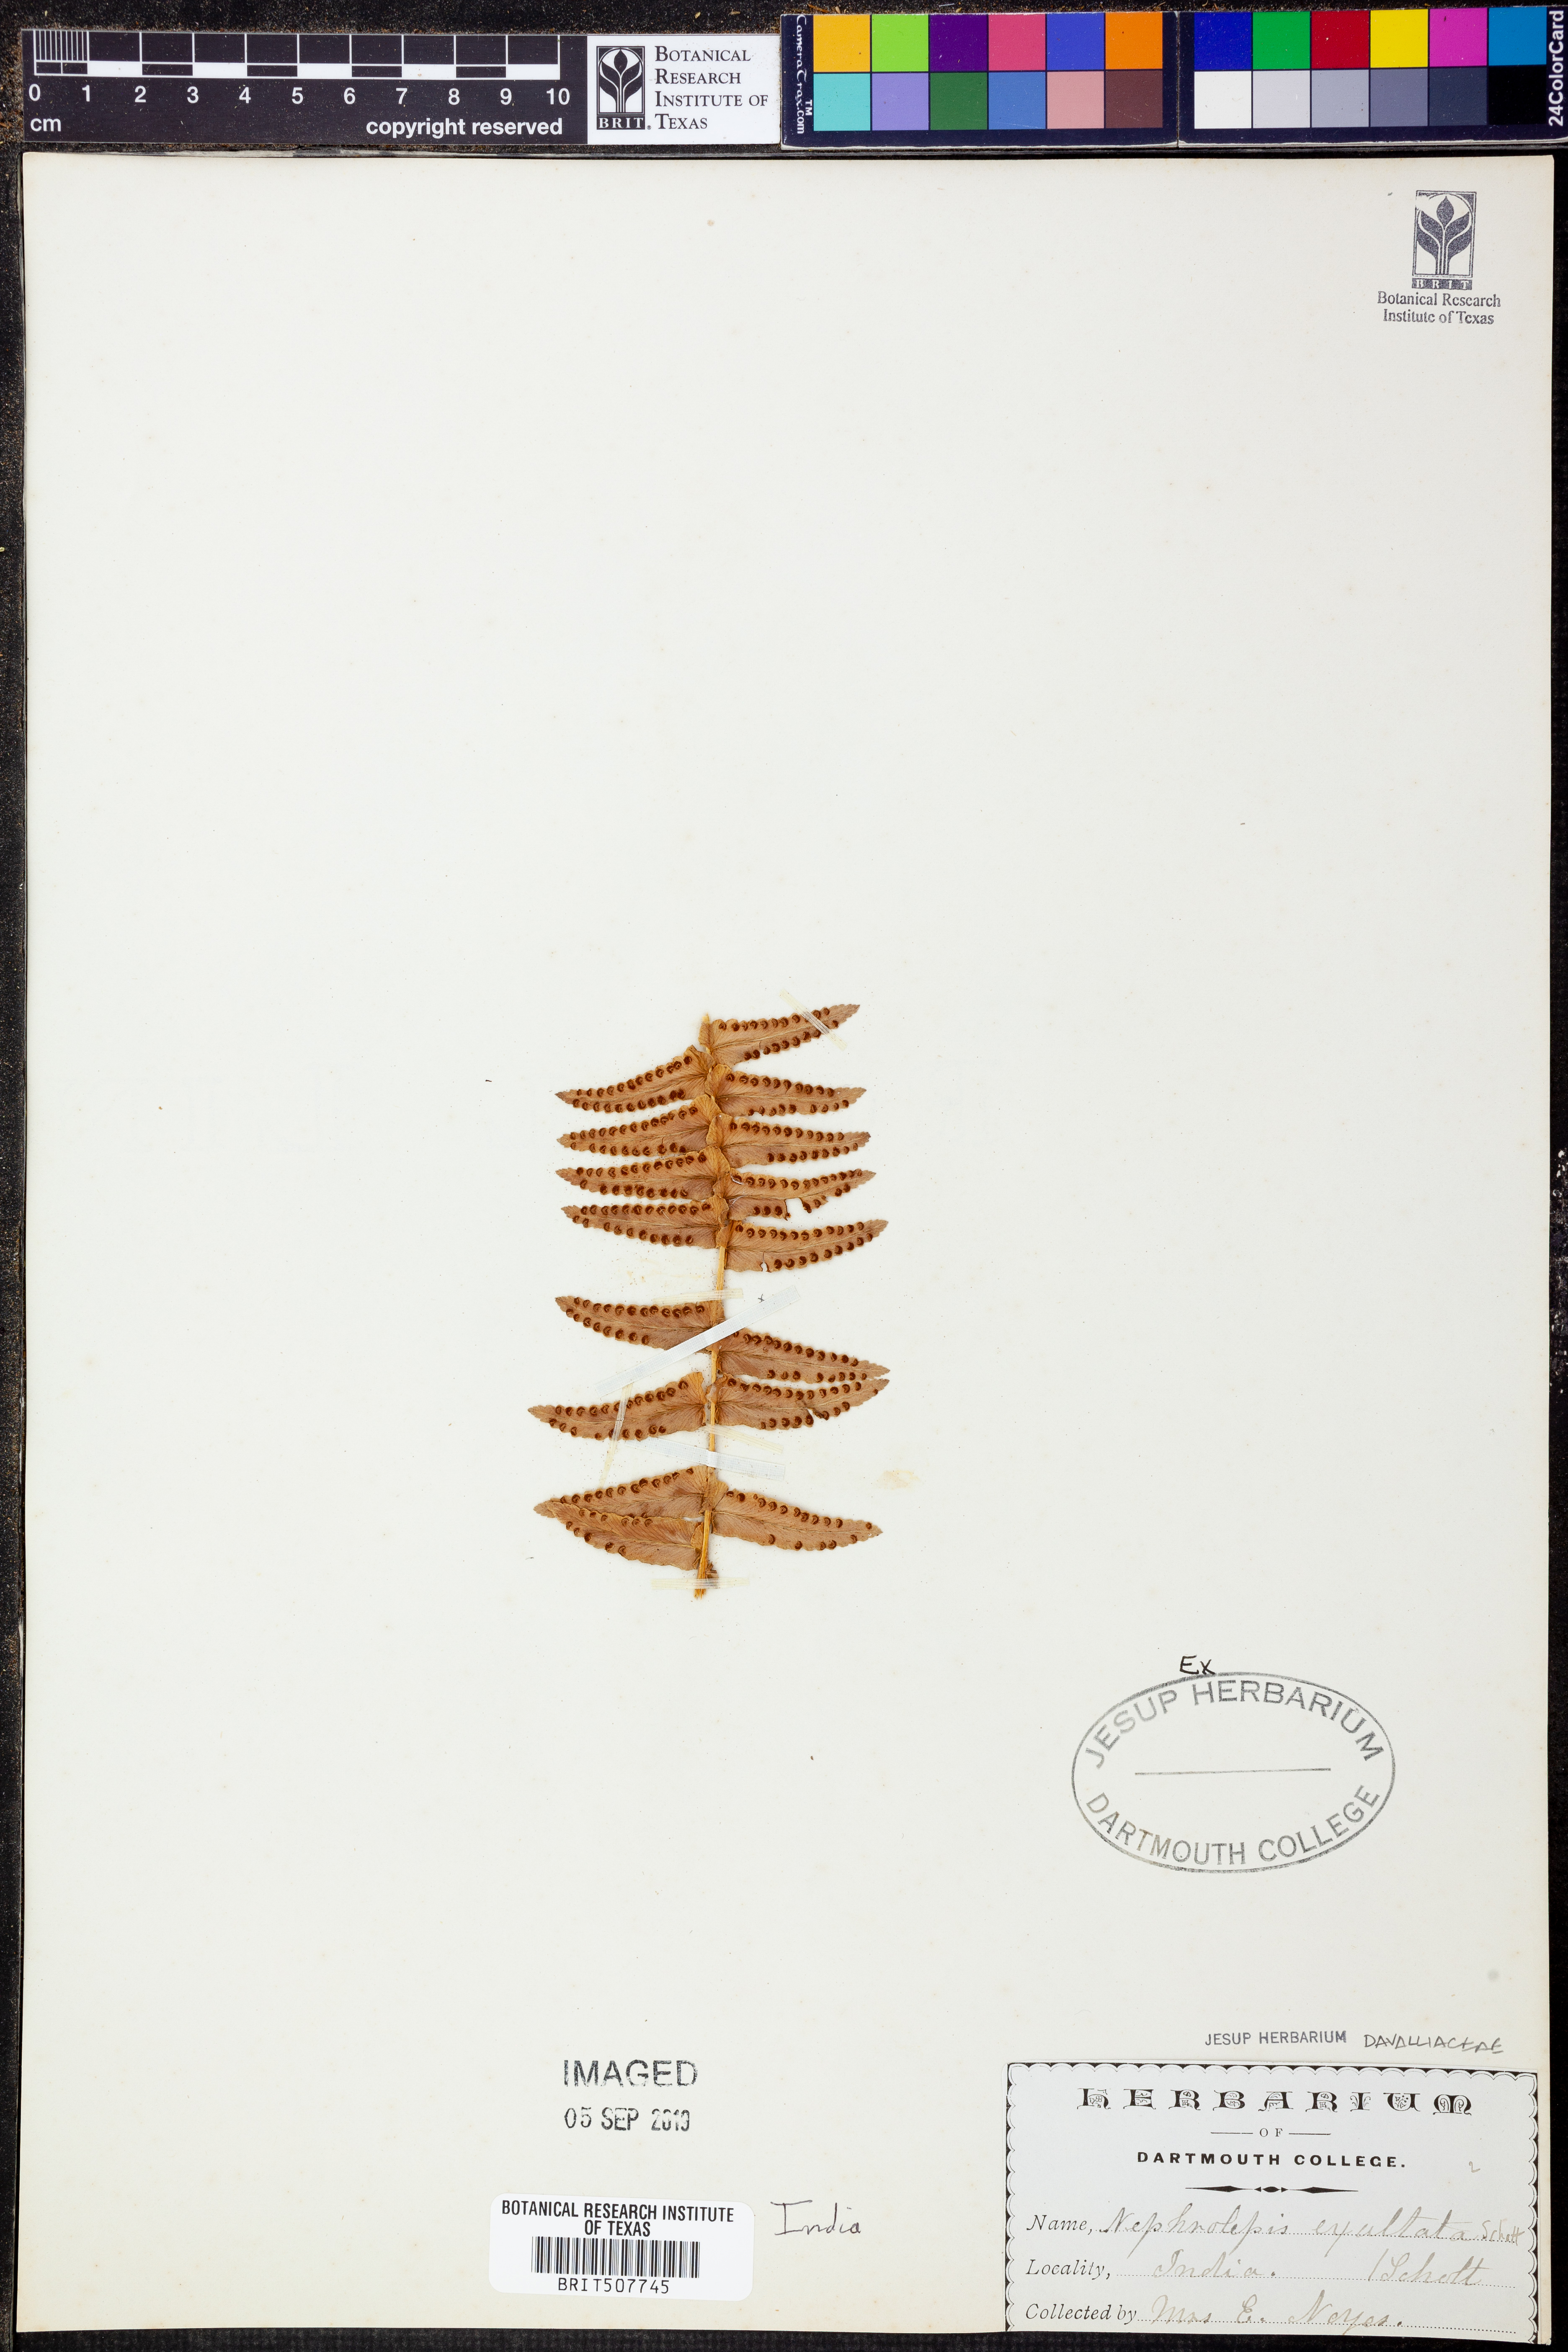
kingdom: Plantae
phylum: Tracheophyta
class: Polypodiopsida
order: Polypodiales
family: Nephrolepidaceae
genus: Nephrolepis
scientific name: Nephrolepis exaltata
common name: Sword fern
